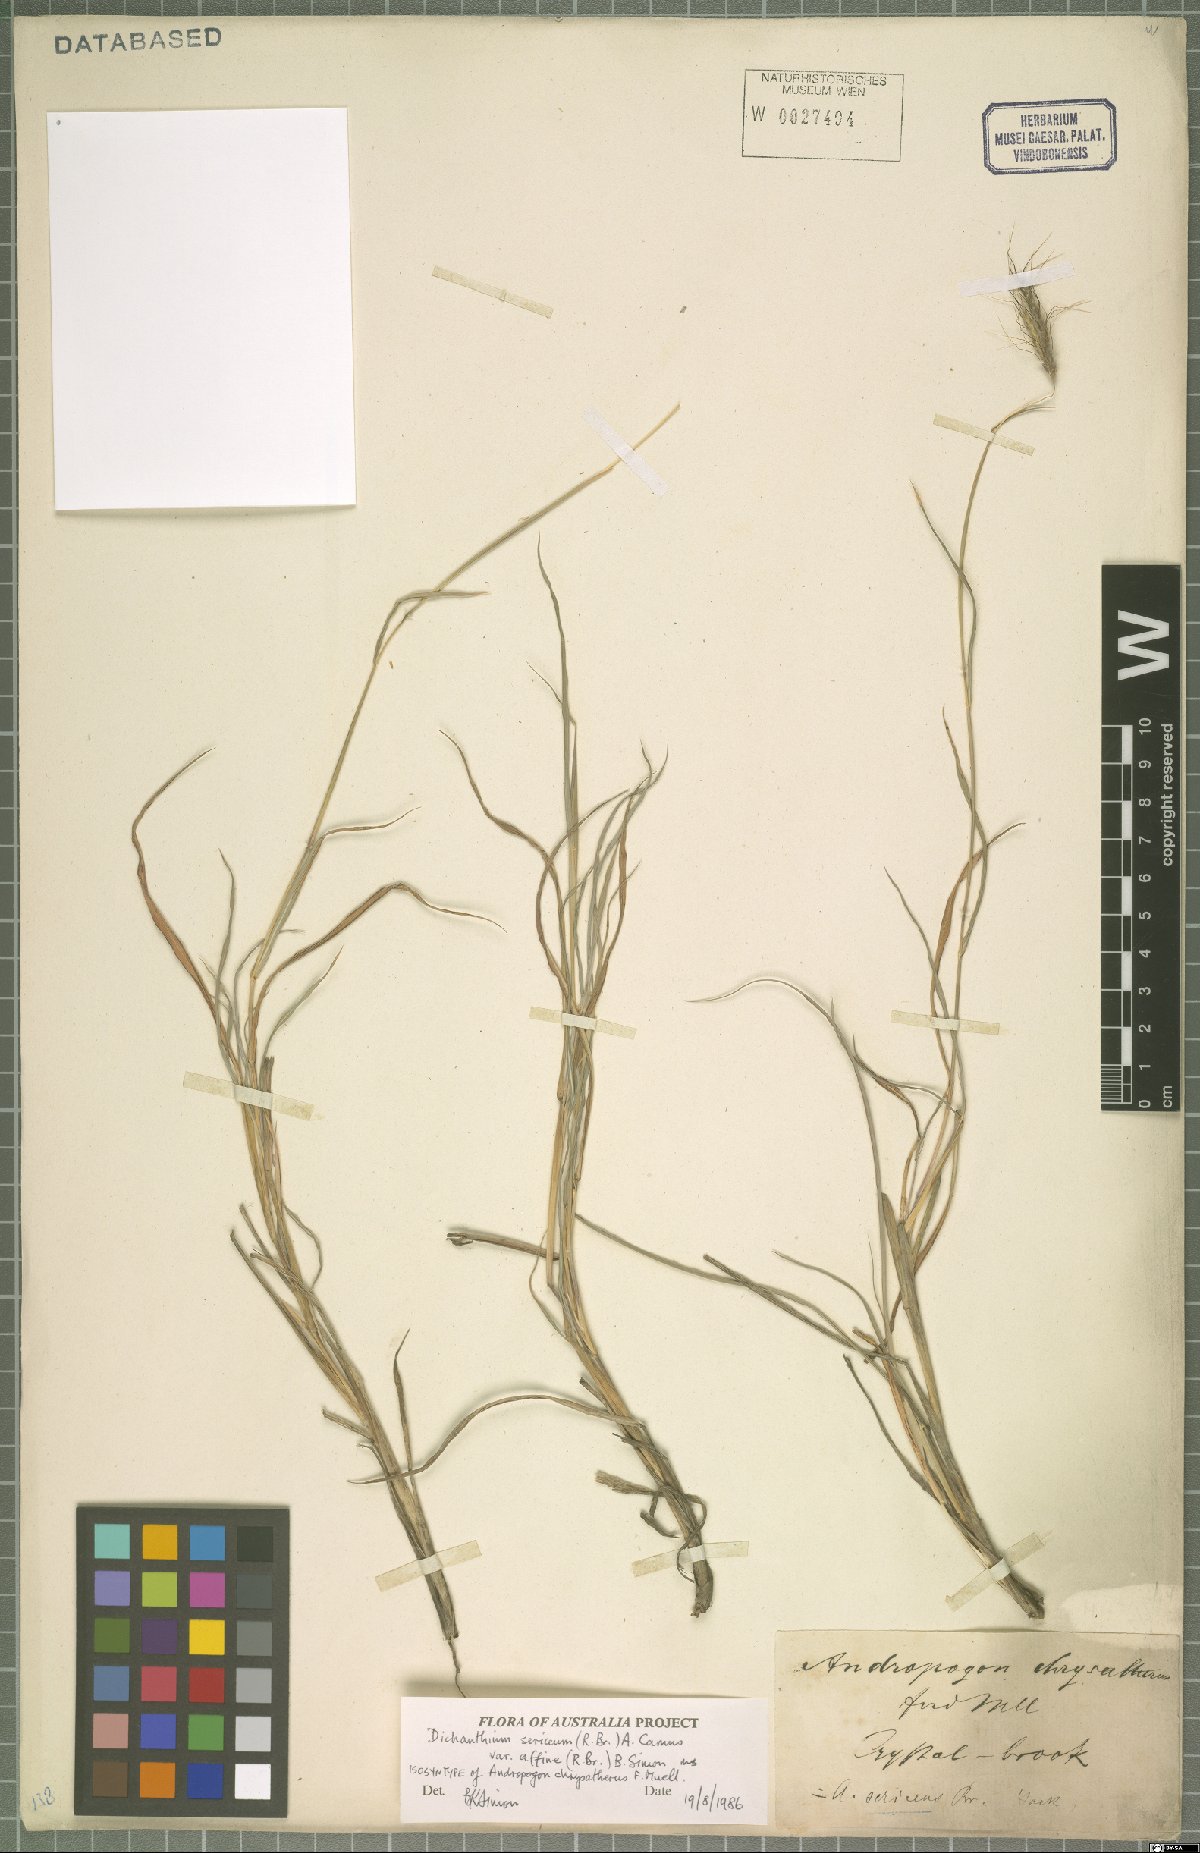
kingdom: Plantae
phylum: Tracheophyta
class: Liliopsida
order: Poales
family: Poaceae
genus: Dichanthium
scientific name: Dichanthium sericeum
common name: Silky bluestem
